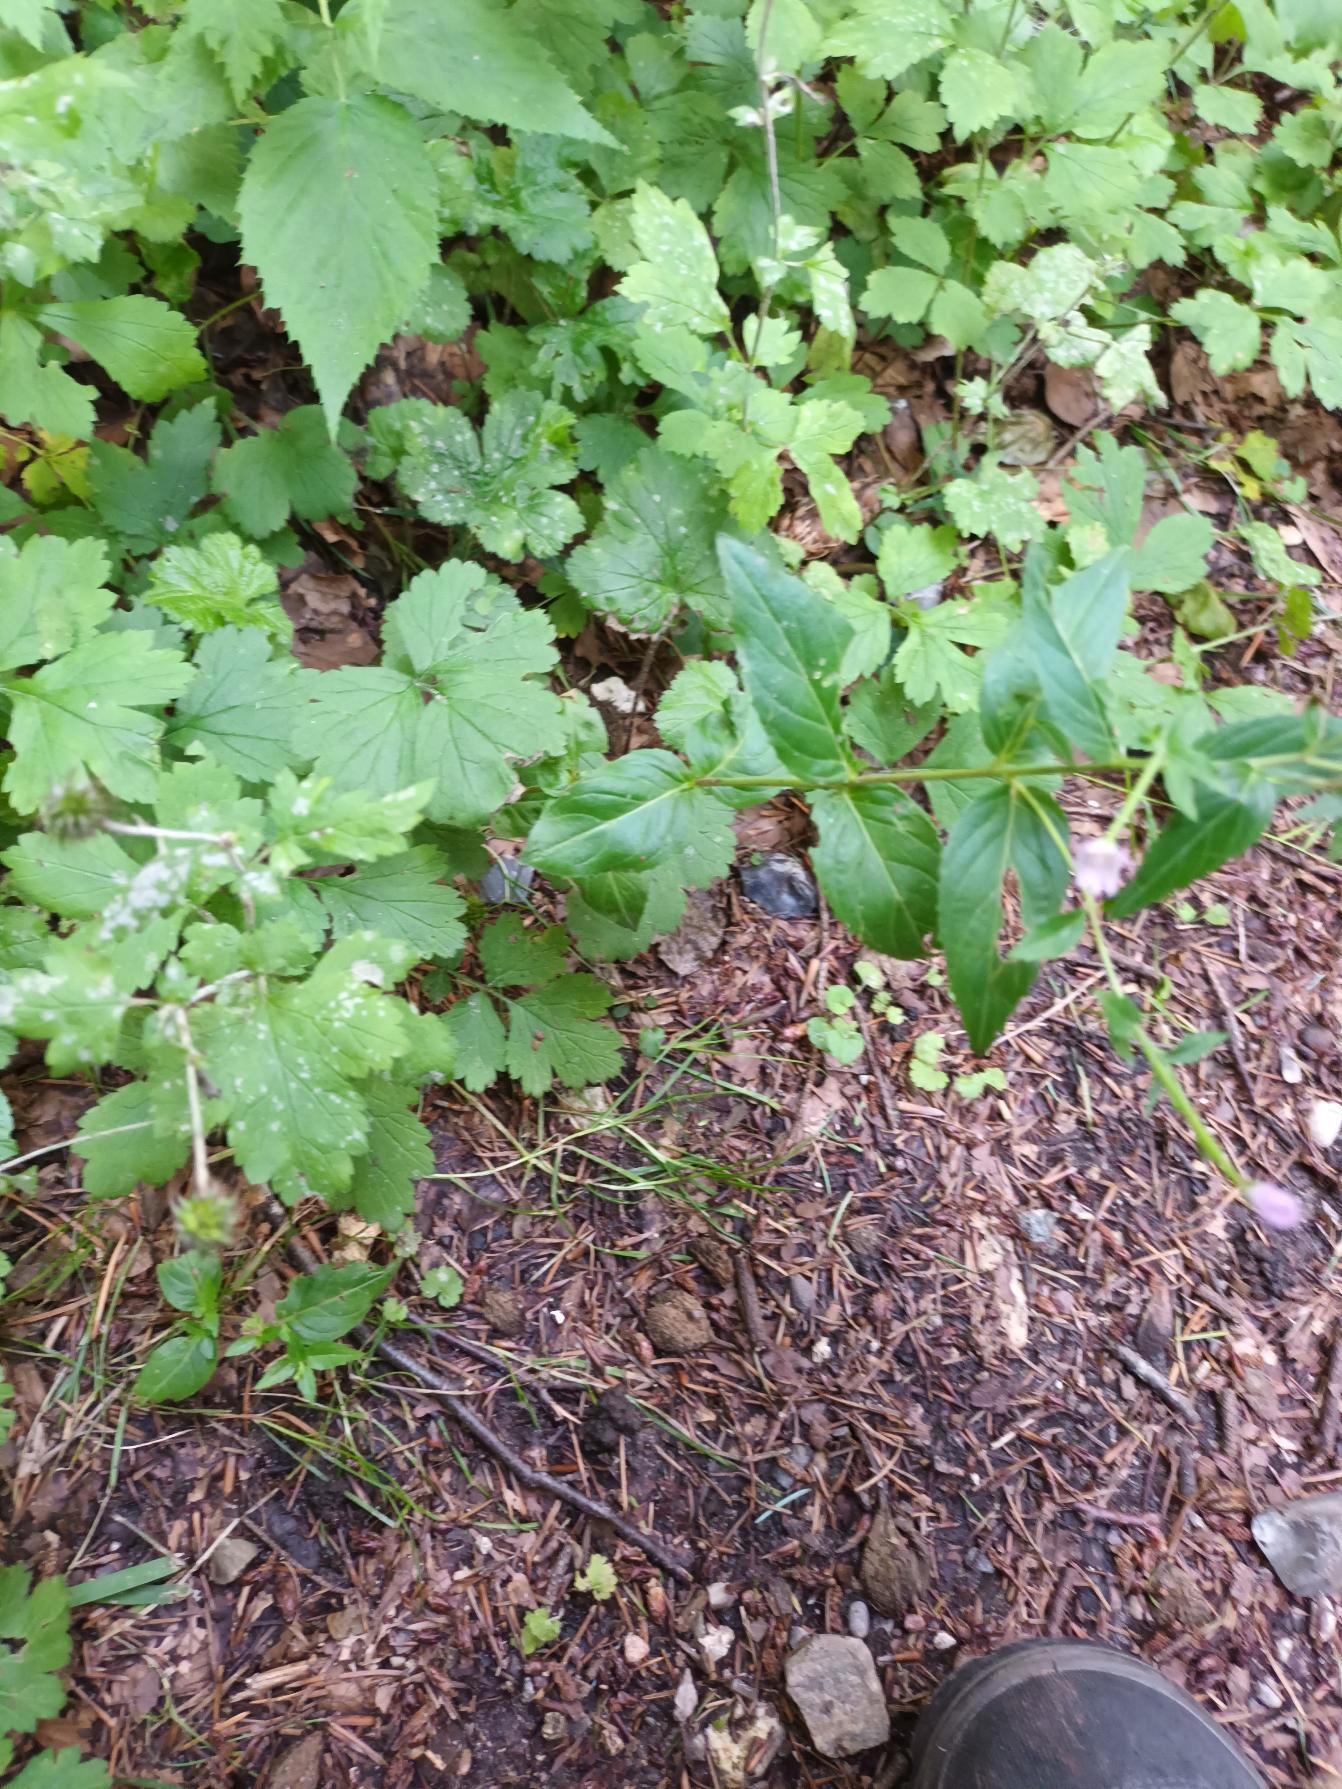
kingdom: Plantae
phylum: Tracheophyta
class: Magnoliopsida
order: Myrtales
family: Onagraceae
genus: Epilobium
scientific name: Epilobium montanum
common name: Glat dueurt
